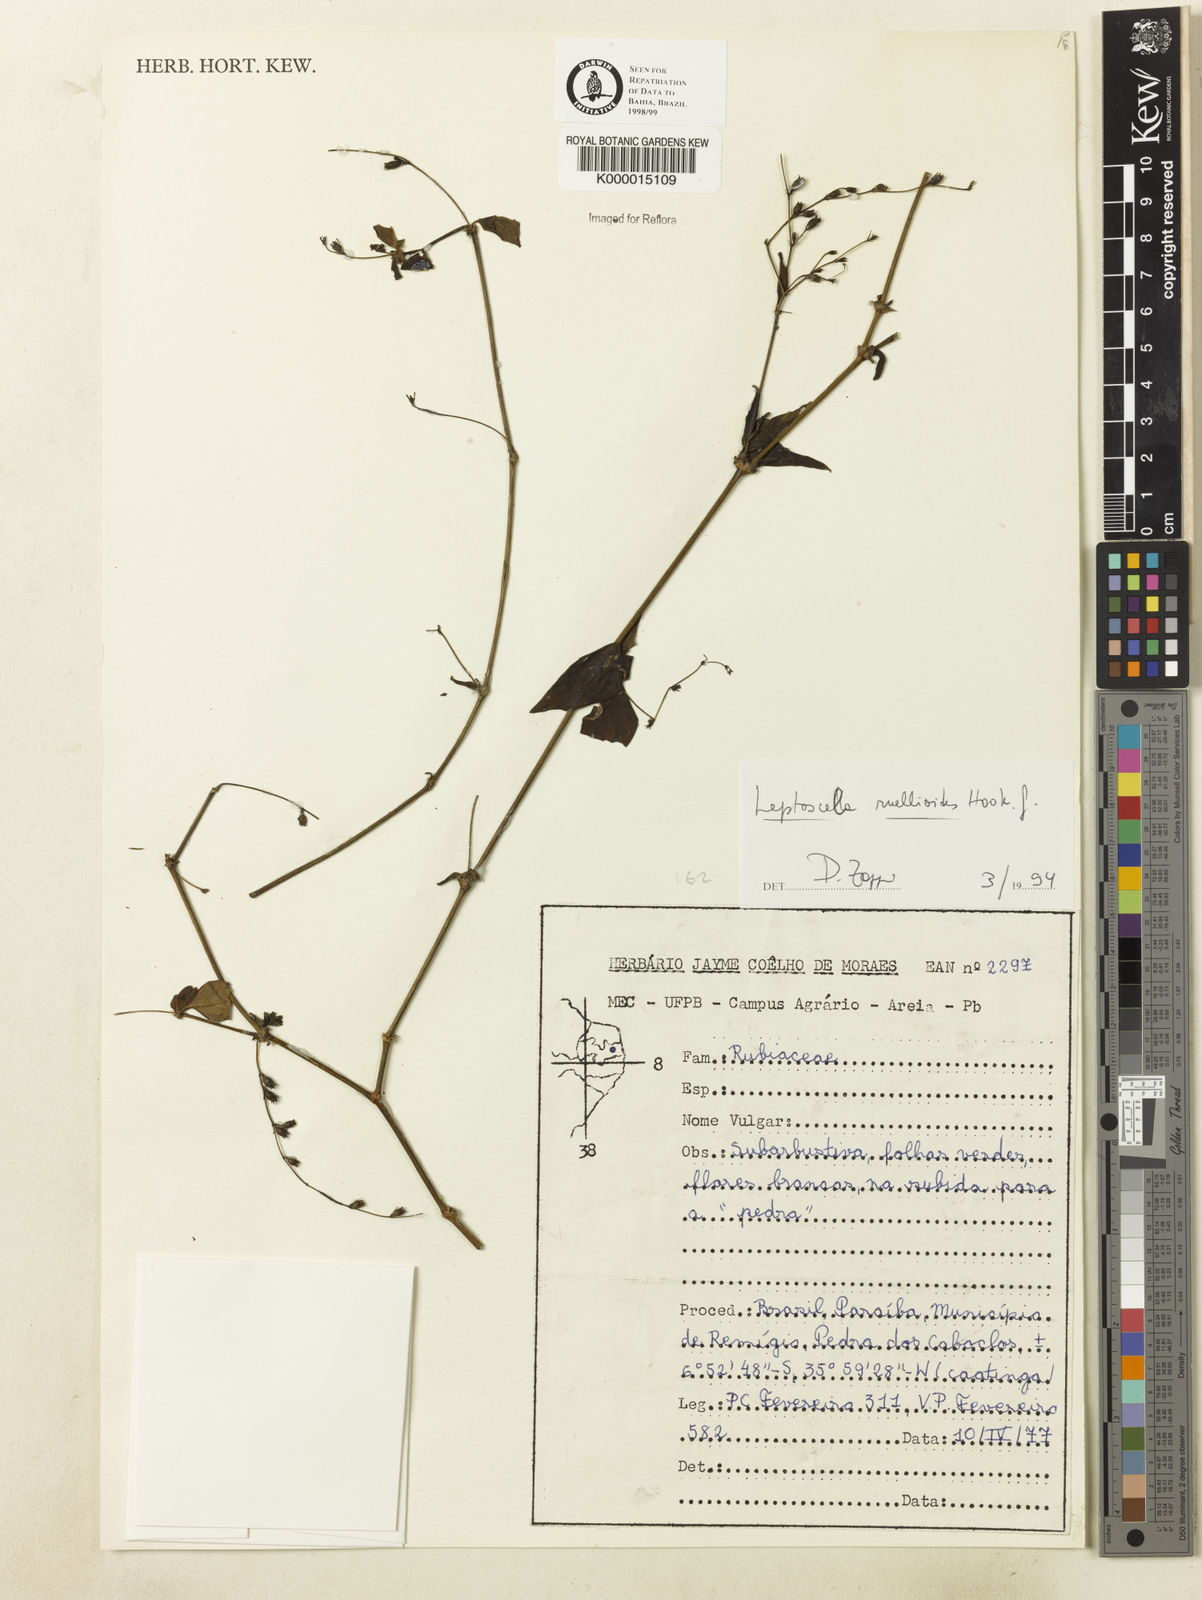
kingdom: Plantae
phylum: Tracheophyta
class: Magnoliopsida
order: Gentianales
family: Rubiaceae
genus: Leptoscela
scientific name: Leptoscela
